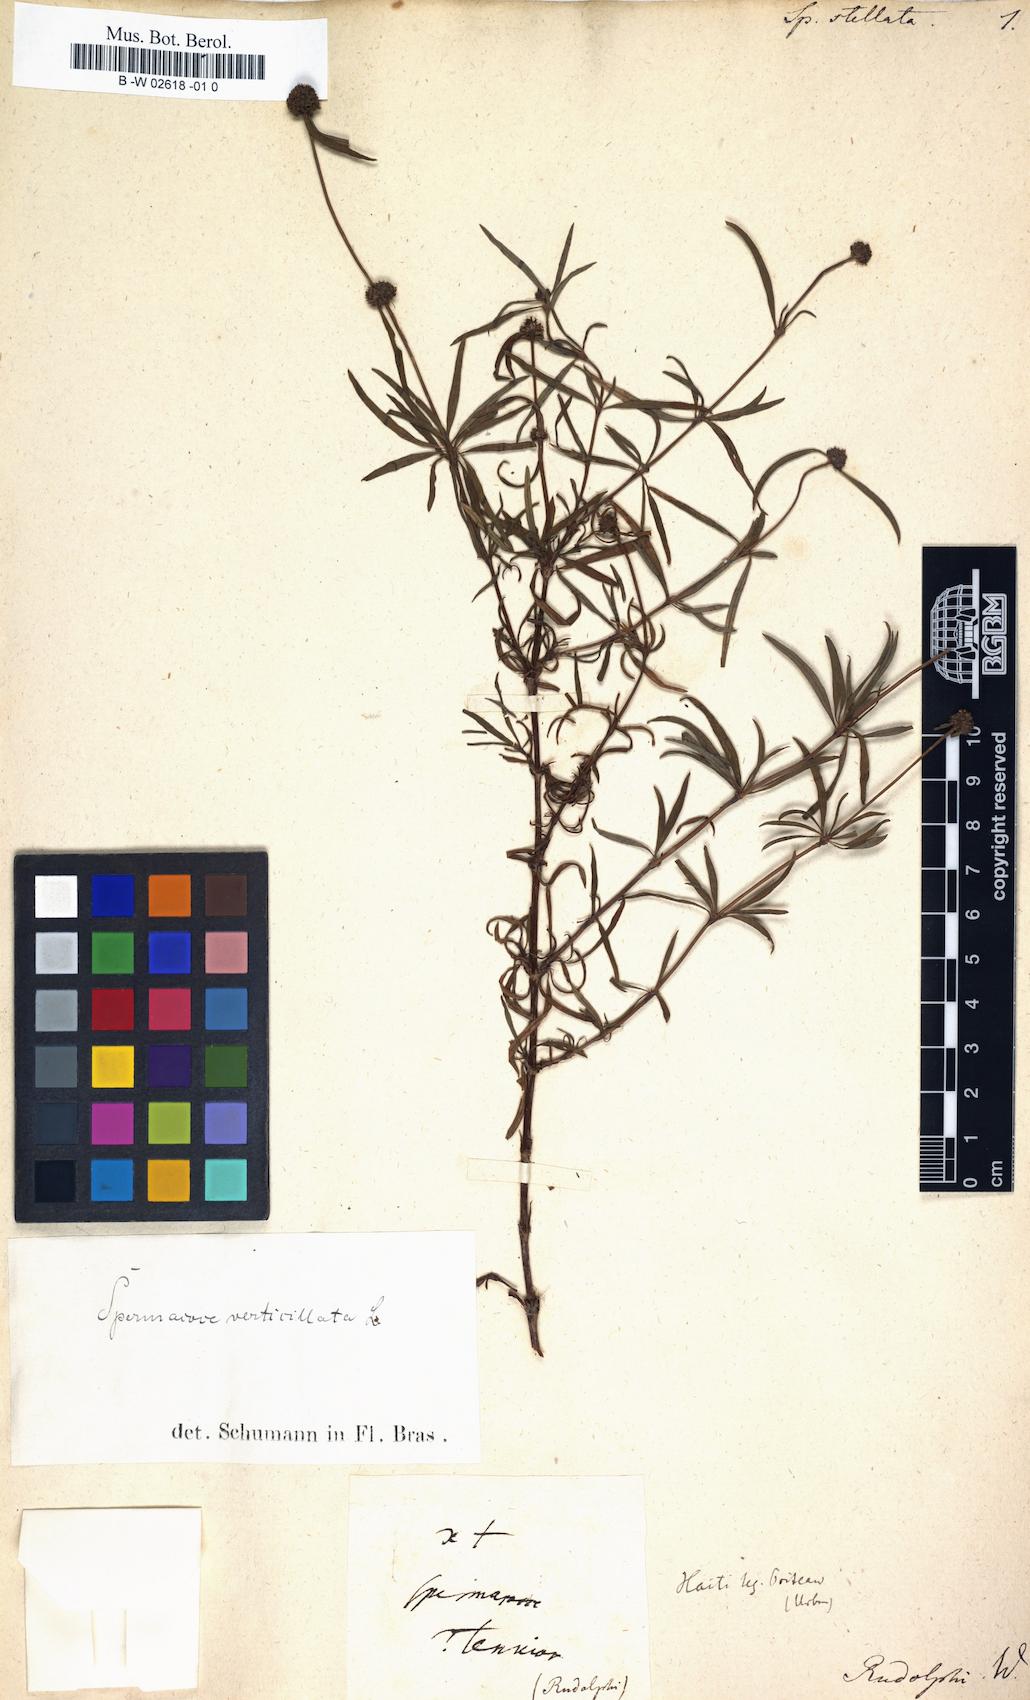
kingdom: Plantae
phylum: Tracheophyta
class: Magnoliopsida
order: Gentianales
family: Rubiaceae
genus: Spermacoce
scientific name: Spermacoce verticillata
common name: Shrubby false buttonweed
